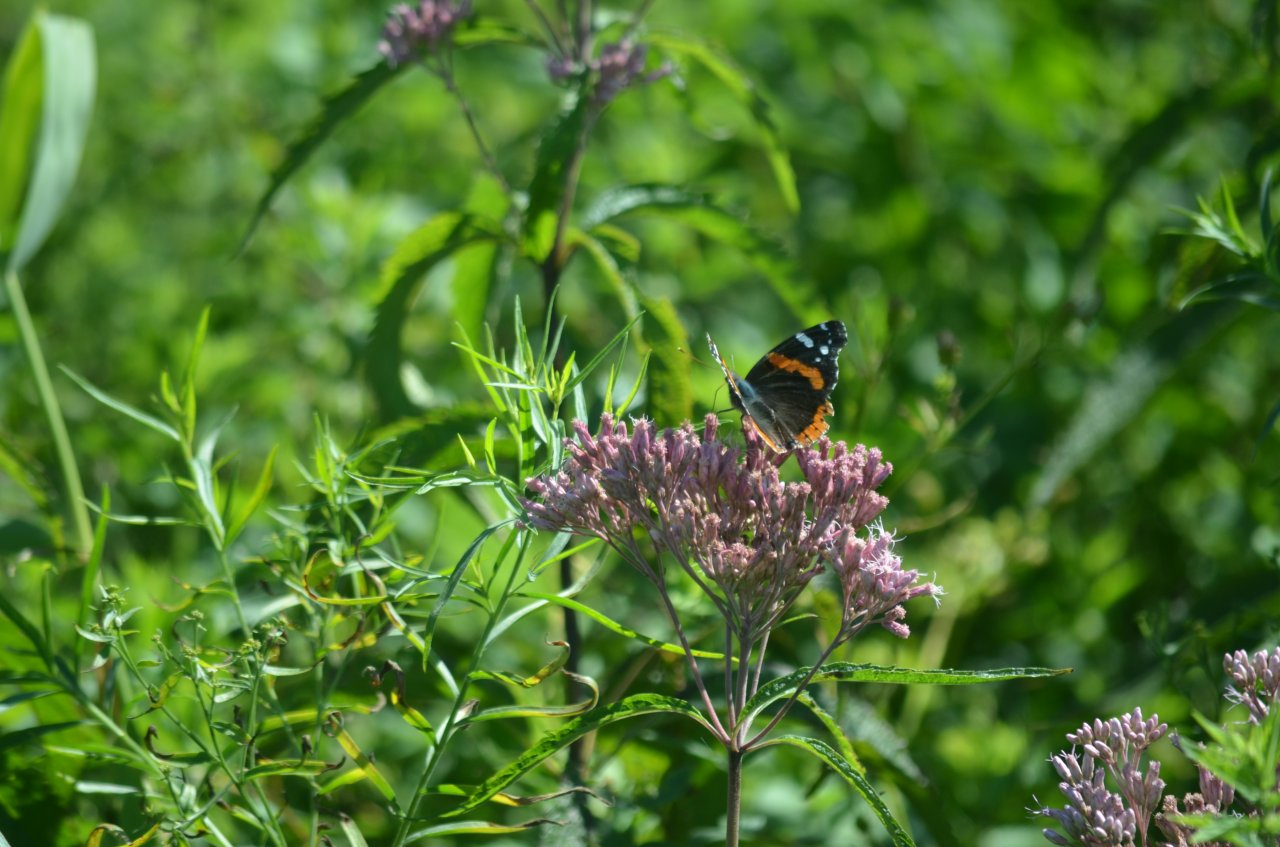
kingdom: Animalia
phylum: Arthropoda
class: Insecta
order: Lepidoptera
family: Nymphalidae
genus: Vanessa
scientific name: Vanessa atalanta
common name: Red Admiral
